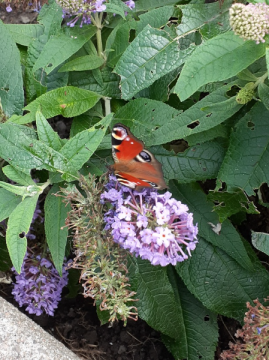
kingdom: Animalia
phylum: Arthropoda
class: Insecta
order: Lepidoptera
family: Nymphalidae
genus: Aglais
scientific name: Aglais io
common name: European Peacock
